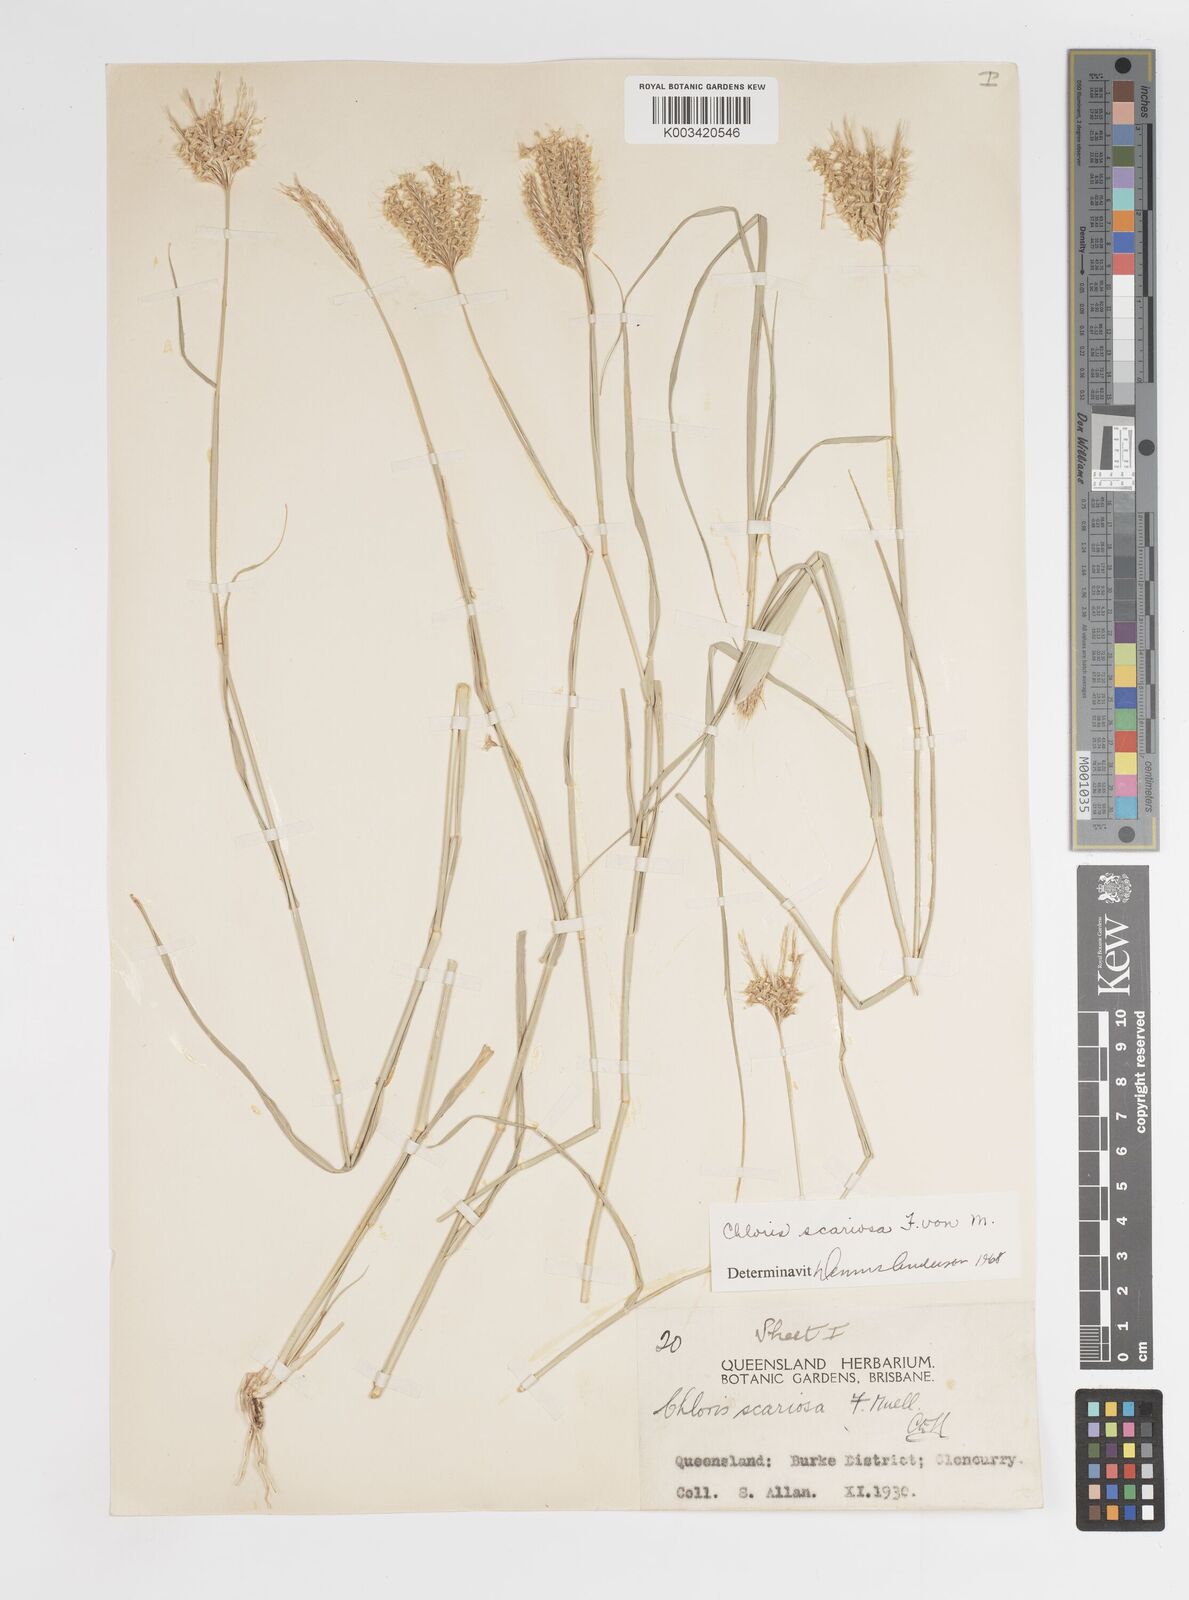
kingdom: Plantae
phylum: Tracheophyta
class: Liliopsida
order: Poales
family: Poaceae
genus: Oxychloris
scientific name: Oxychloris scariosa
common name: Winged windmill grass
